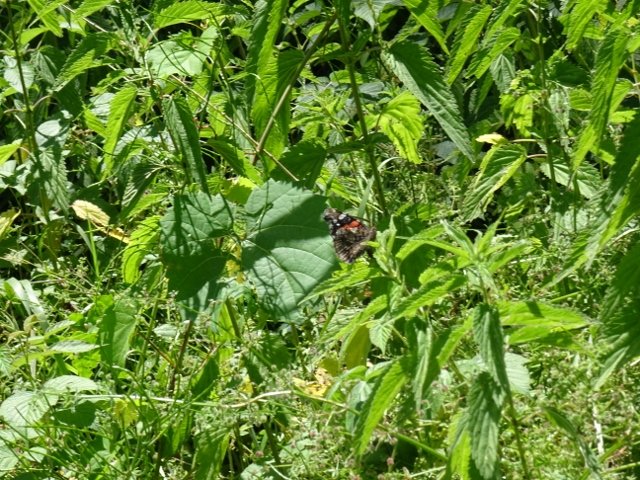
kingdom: Animalia
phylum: Arthropoda
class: Insecta
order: Lepidoptera
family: Nymphalidae
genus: Vanessa
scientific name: Vanessa atalanta
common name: Red Admiral
